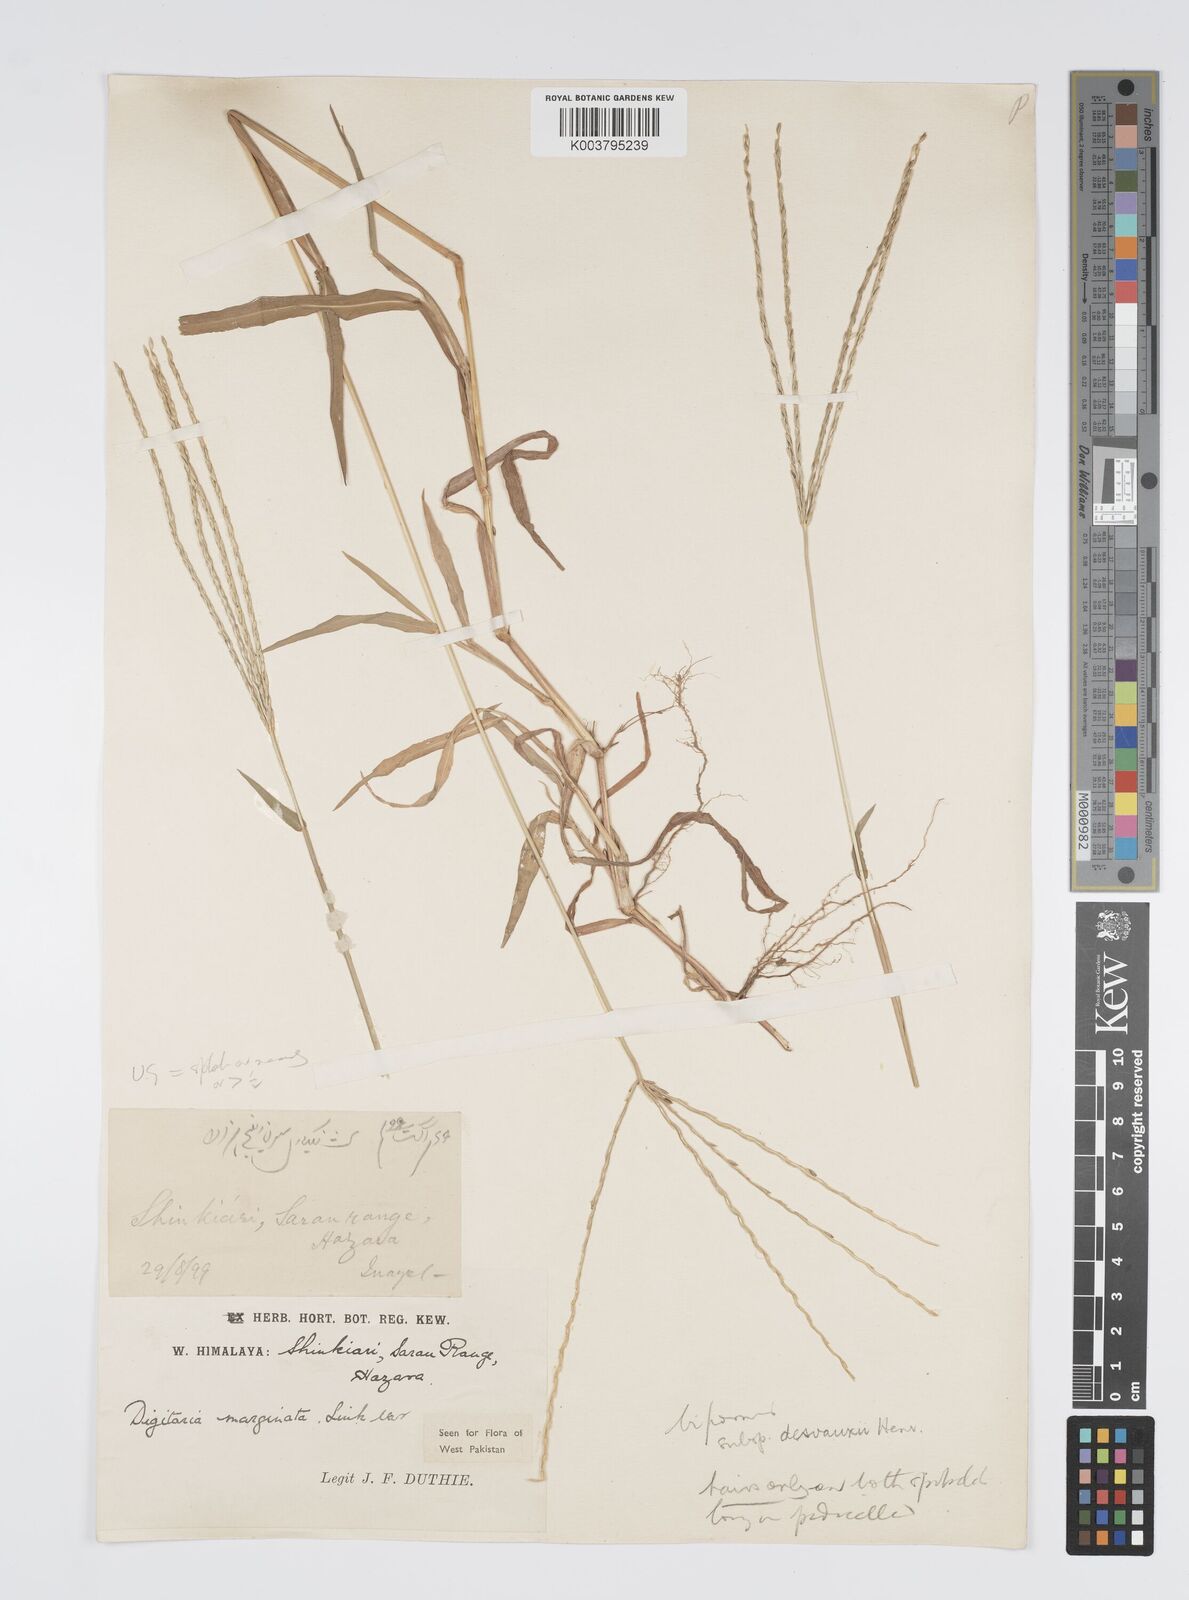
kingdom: Plantae
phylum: Tracheophyta
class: Liliopsida
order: Poales
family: Poaceae
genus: Digitaria
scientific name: Digitaria ciliaris
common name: Tropical finger-grass
